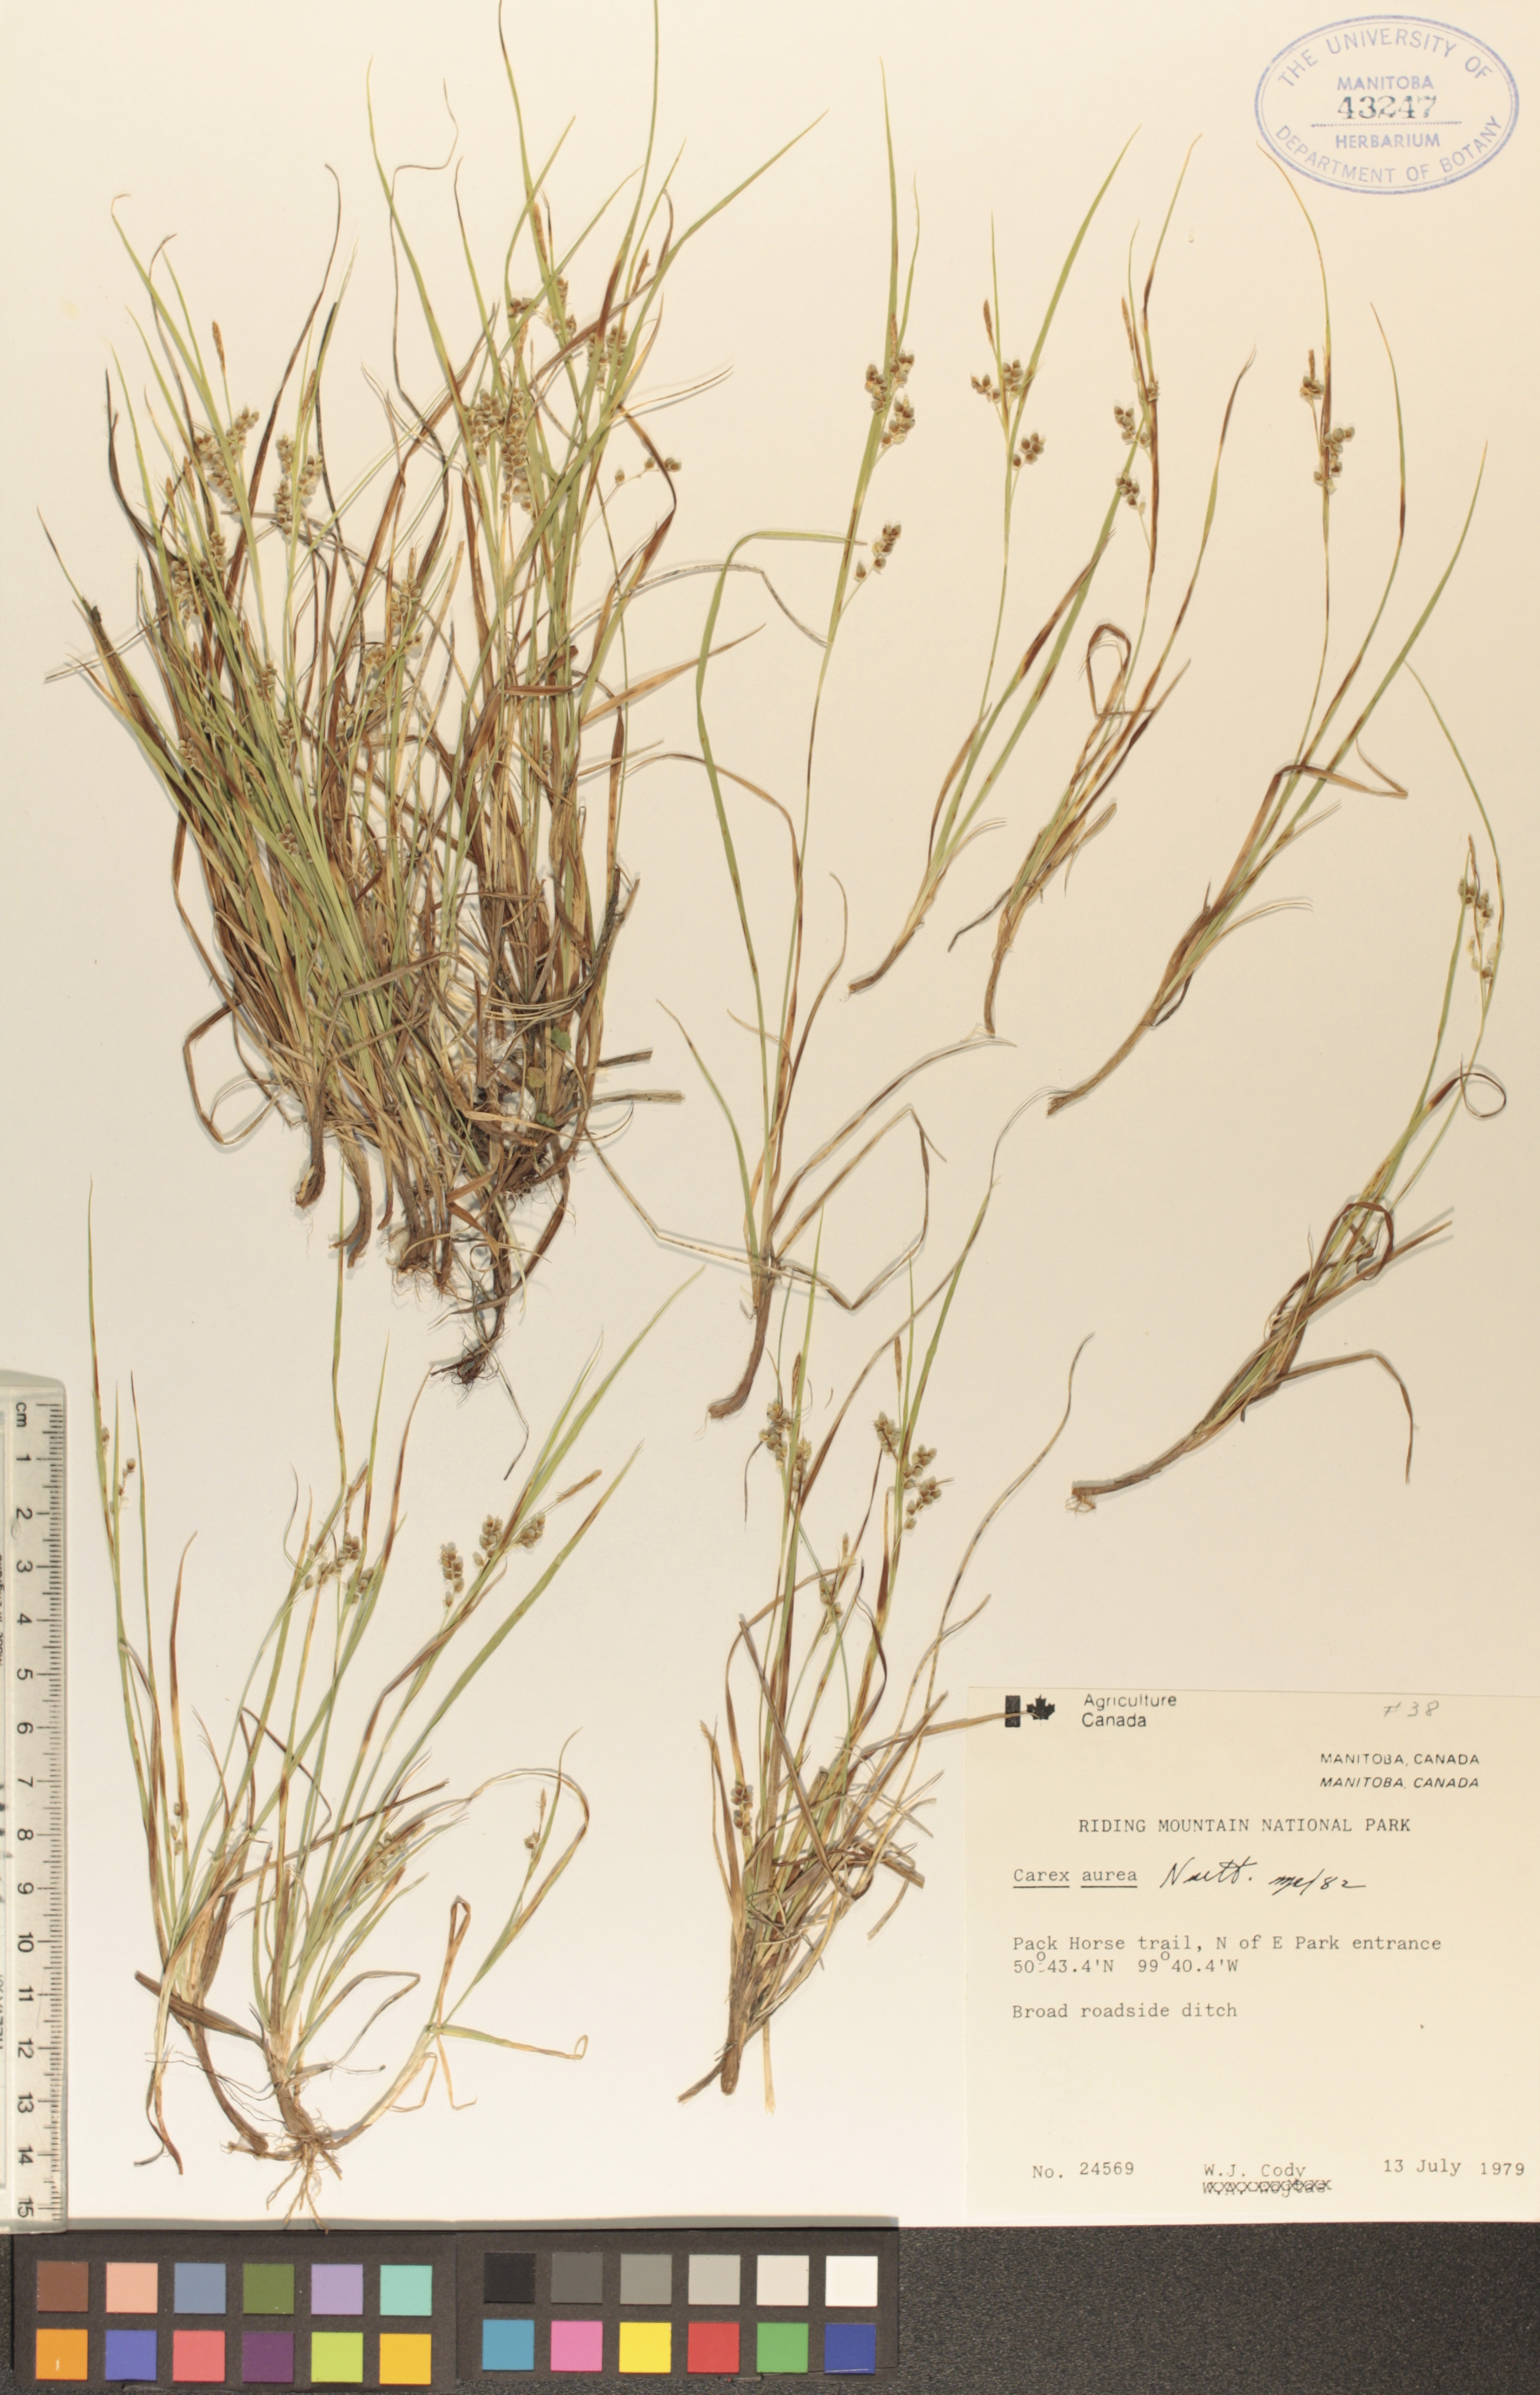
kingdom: Plantae
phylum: Tracheophyta
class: Liliopsida
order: Poales
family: Cyperaceae
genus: Carex
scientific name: Carex aurea
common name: Golden sedge
